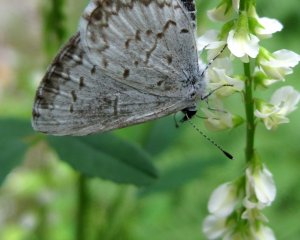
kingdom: Animalia
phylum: Arthropoda
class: Insecta
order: Lepidoptera
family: Lycaenidae
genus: Cyaniris
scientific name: Cyaniris neglecta
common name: Summer Azure
